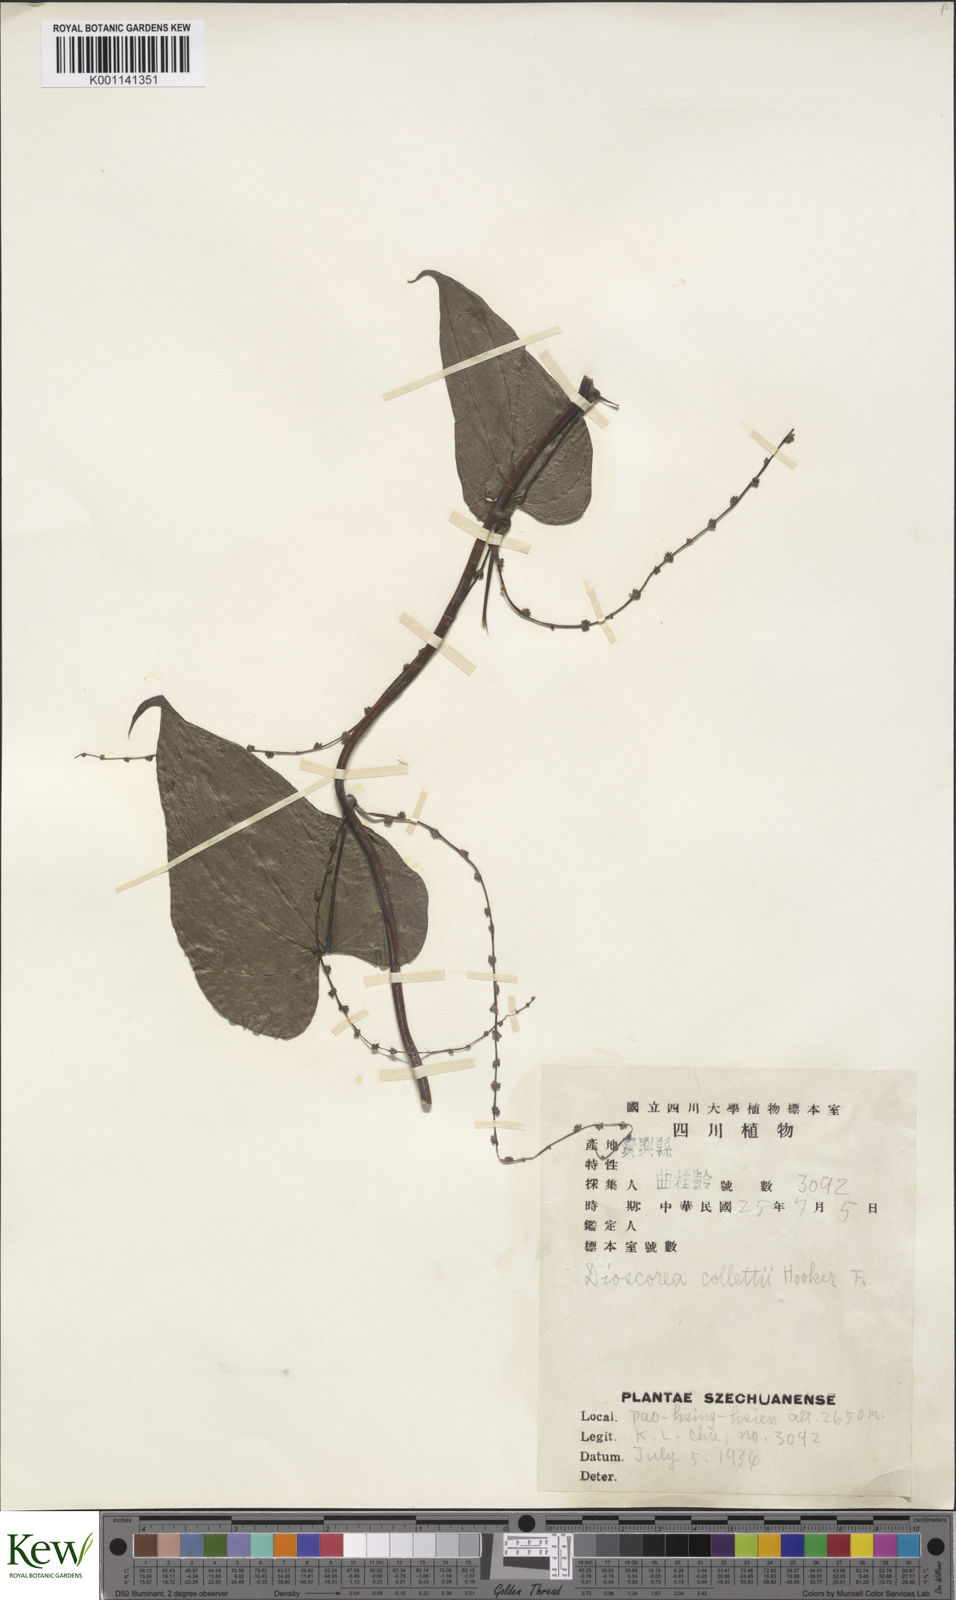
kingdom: Plantae
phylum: Tracheophyta
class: Liliopsida
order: Dioscoreales
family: Dioscoreaceae
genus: Dioscorea
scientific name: Dioscorea collettii
